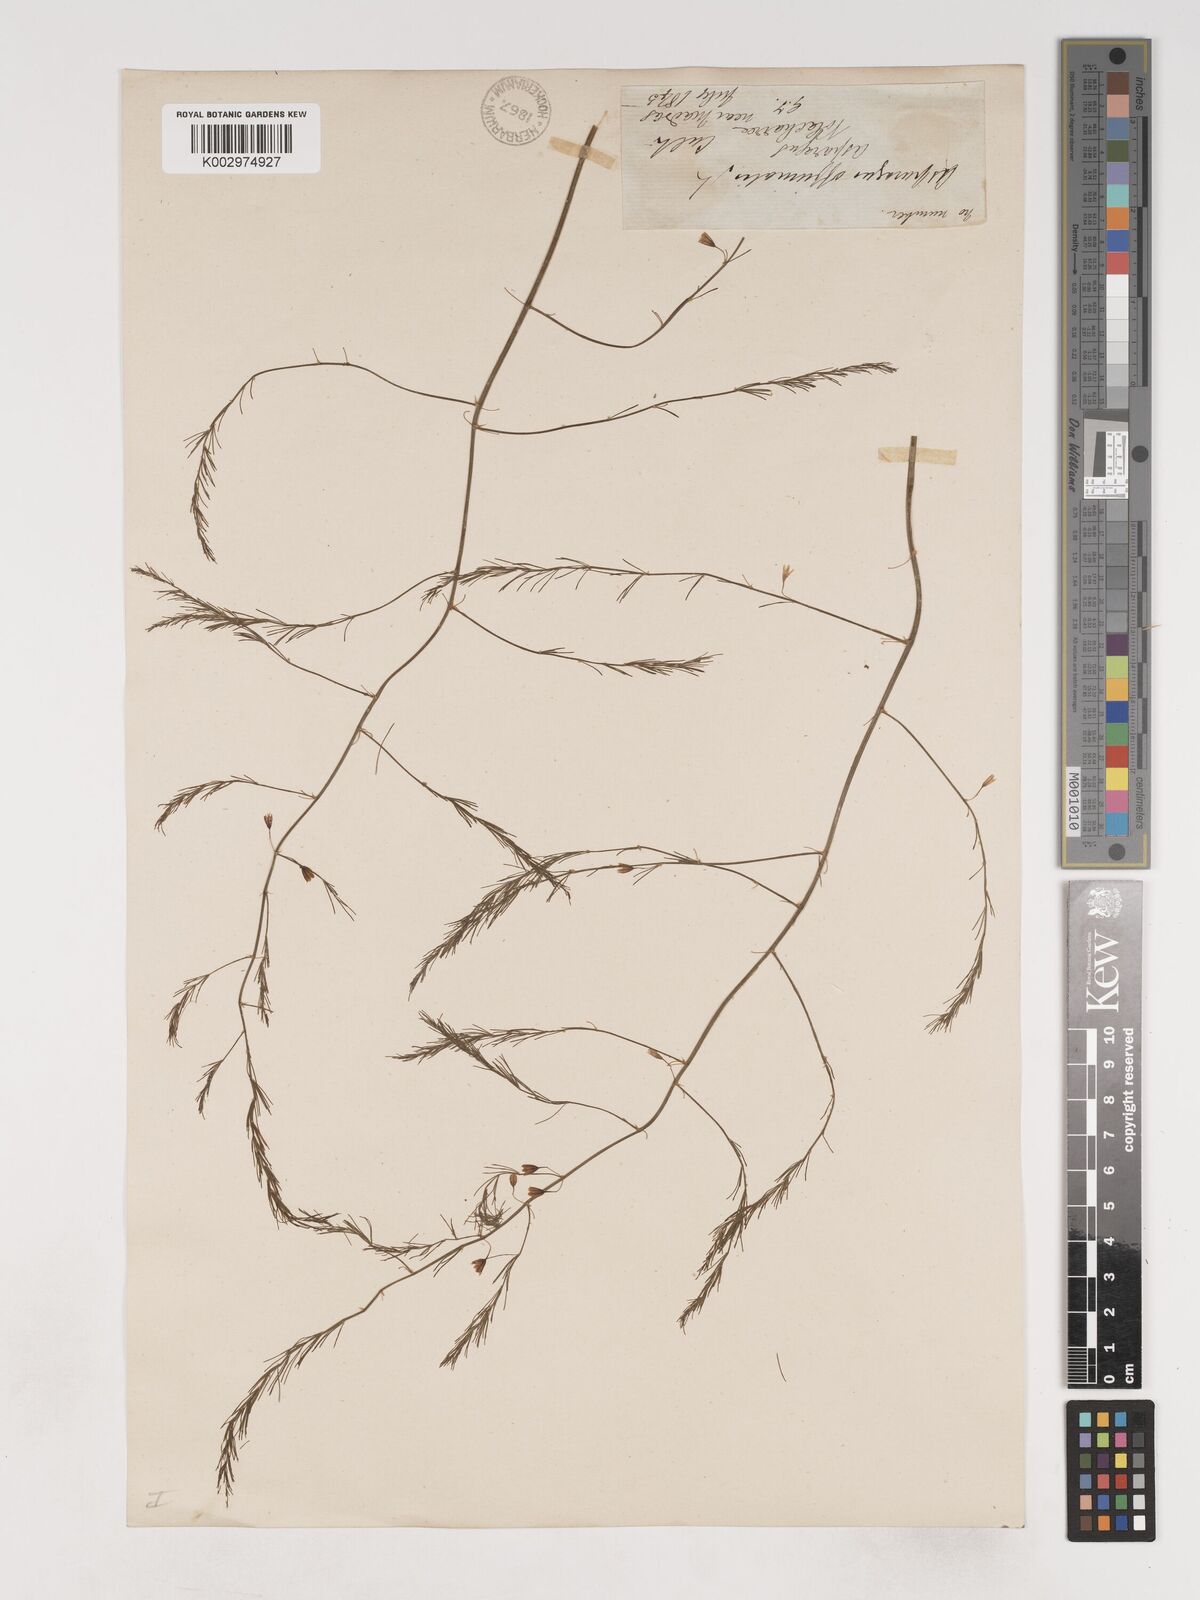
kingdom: Plantae
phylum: Tracheophyta
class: Liliopsida
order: Asparagales
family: Asparagaceae
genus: Asparagus
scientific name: Asparagus officinalis
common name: Garden asparagus
